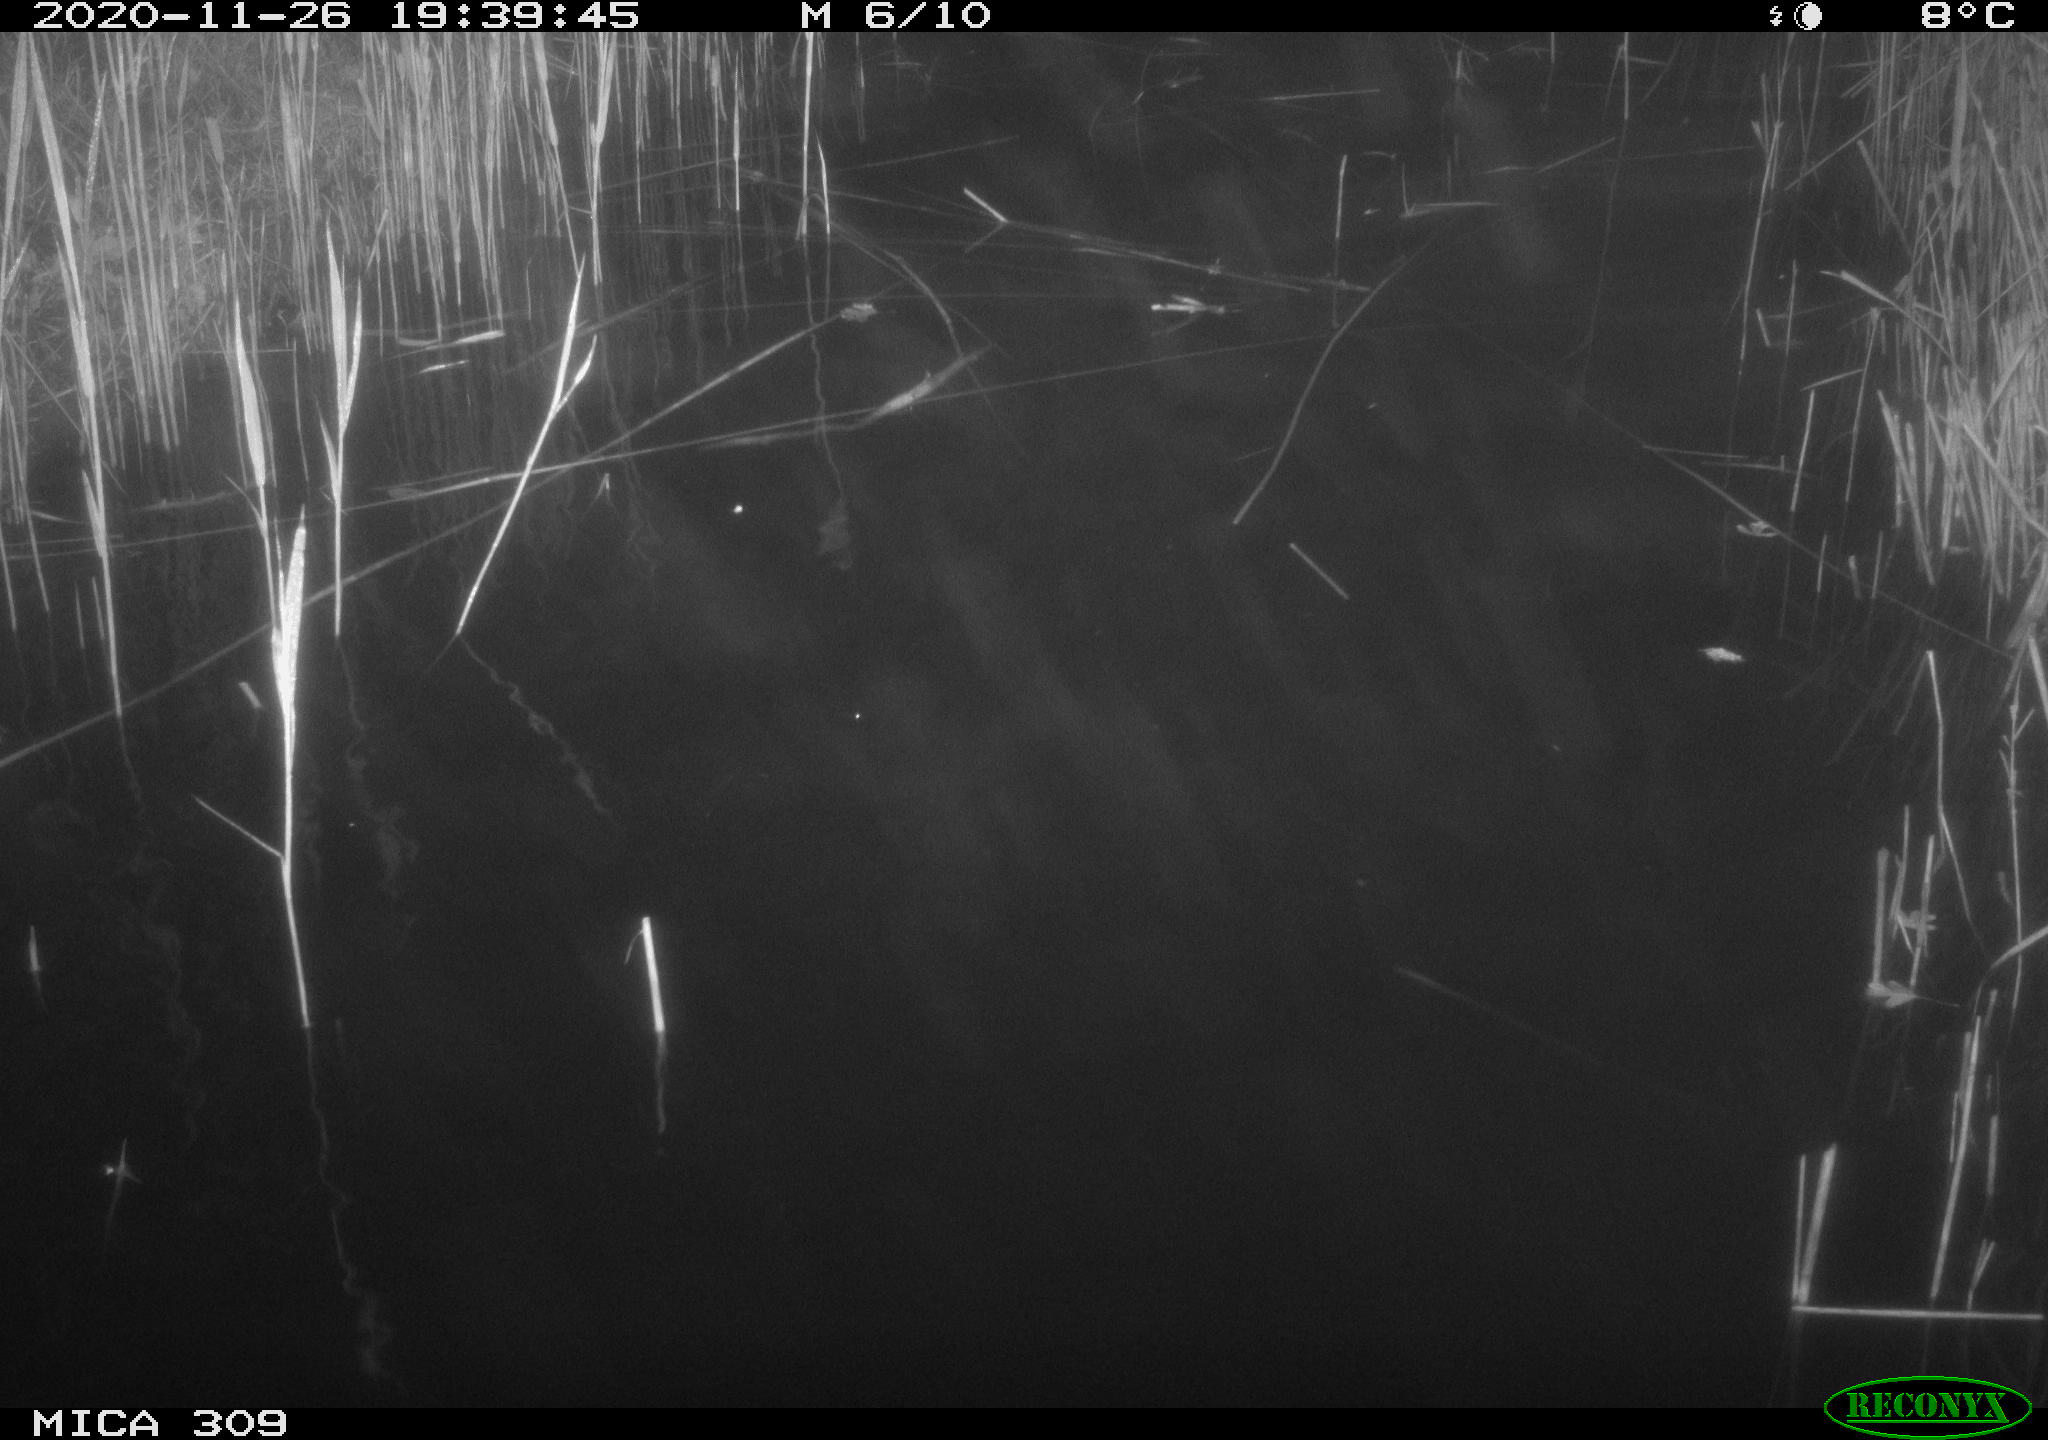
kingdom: Animalia
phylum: Chordata
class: Mammalia
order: Rodentia
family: Muridae
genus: Rattus
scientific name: Rattus norvegicus
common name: Brown rat
